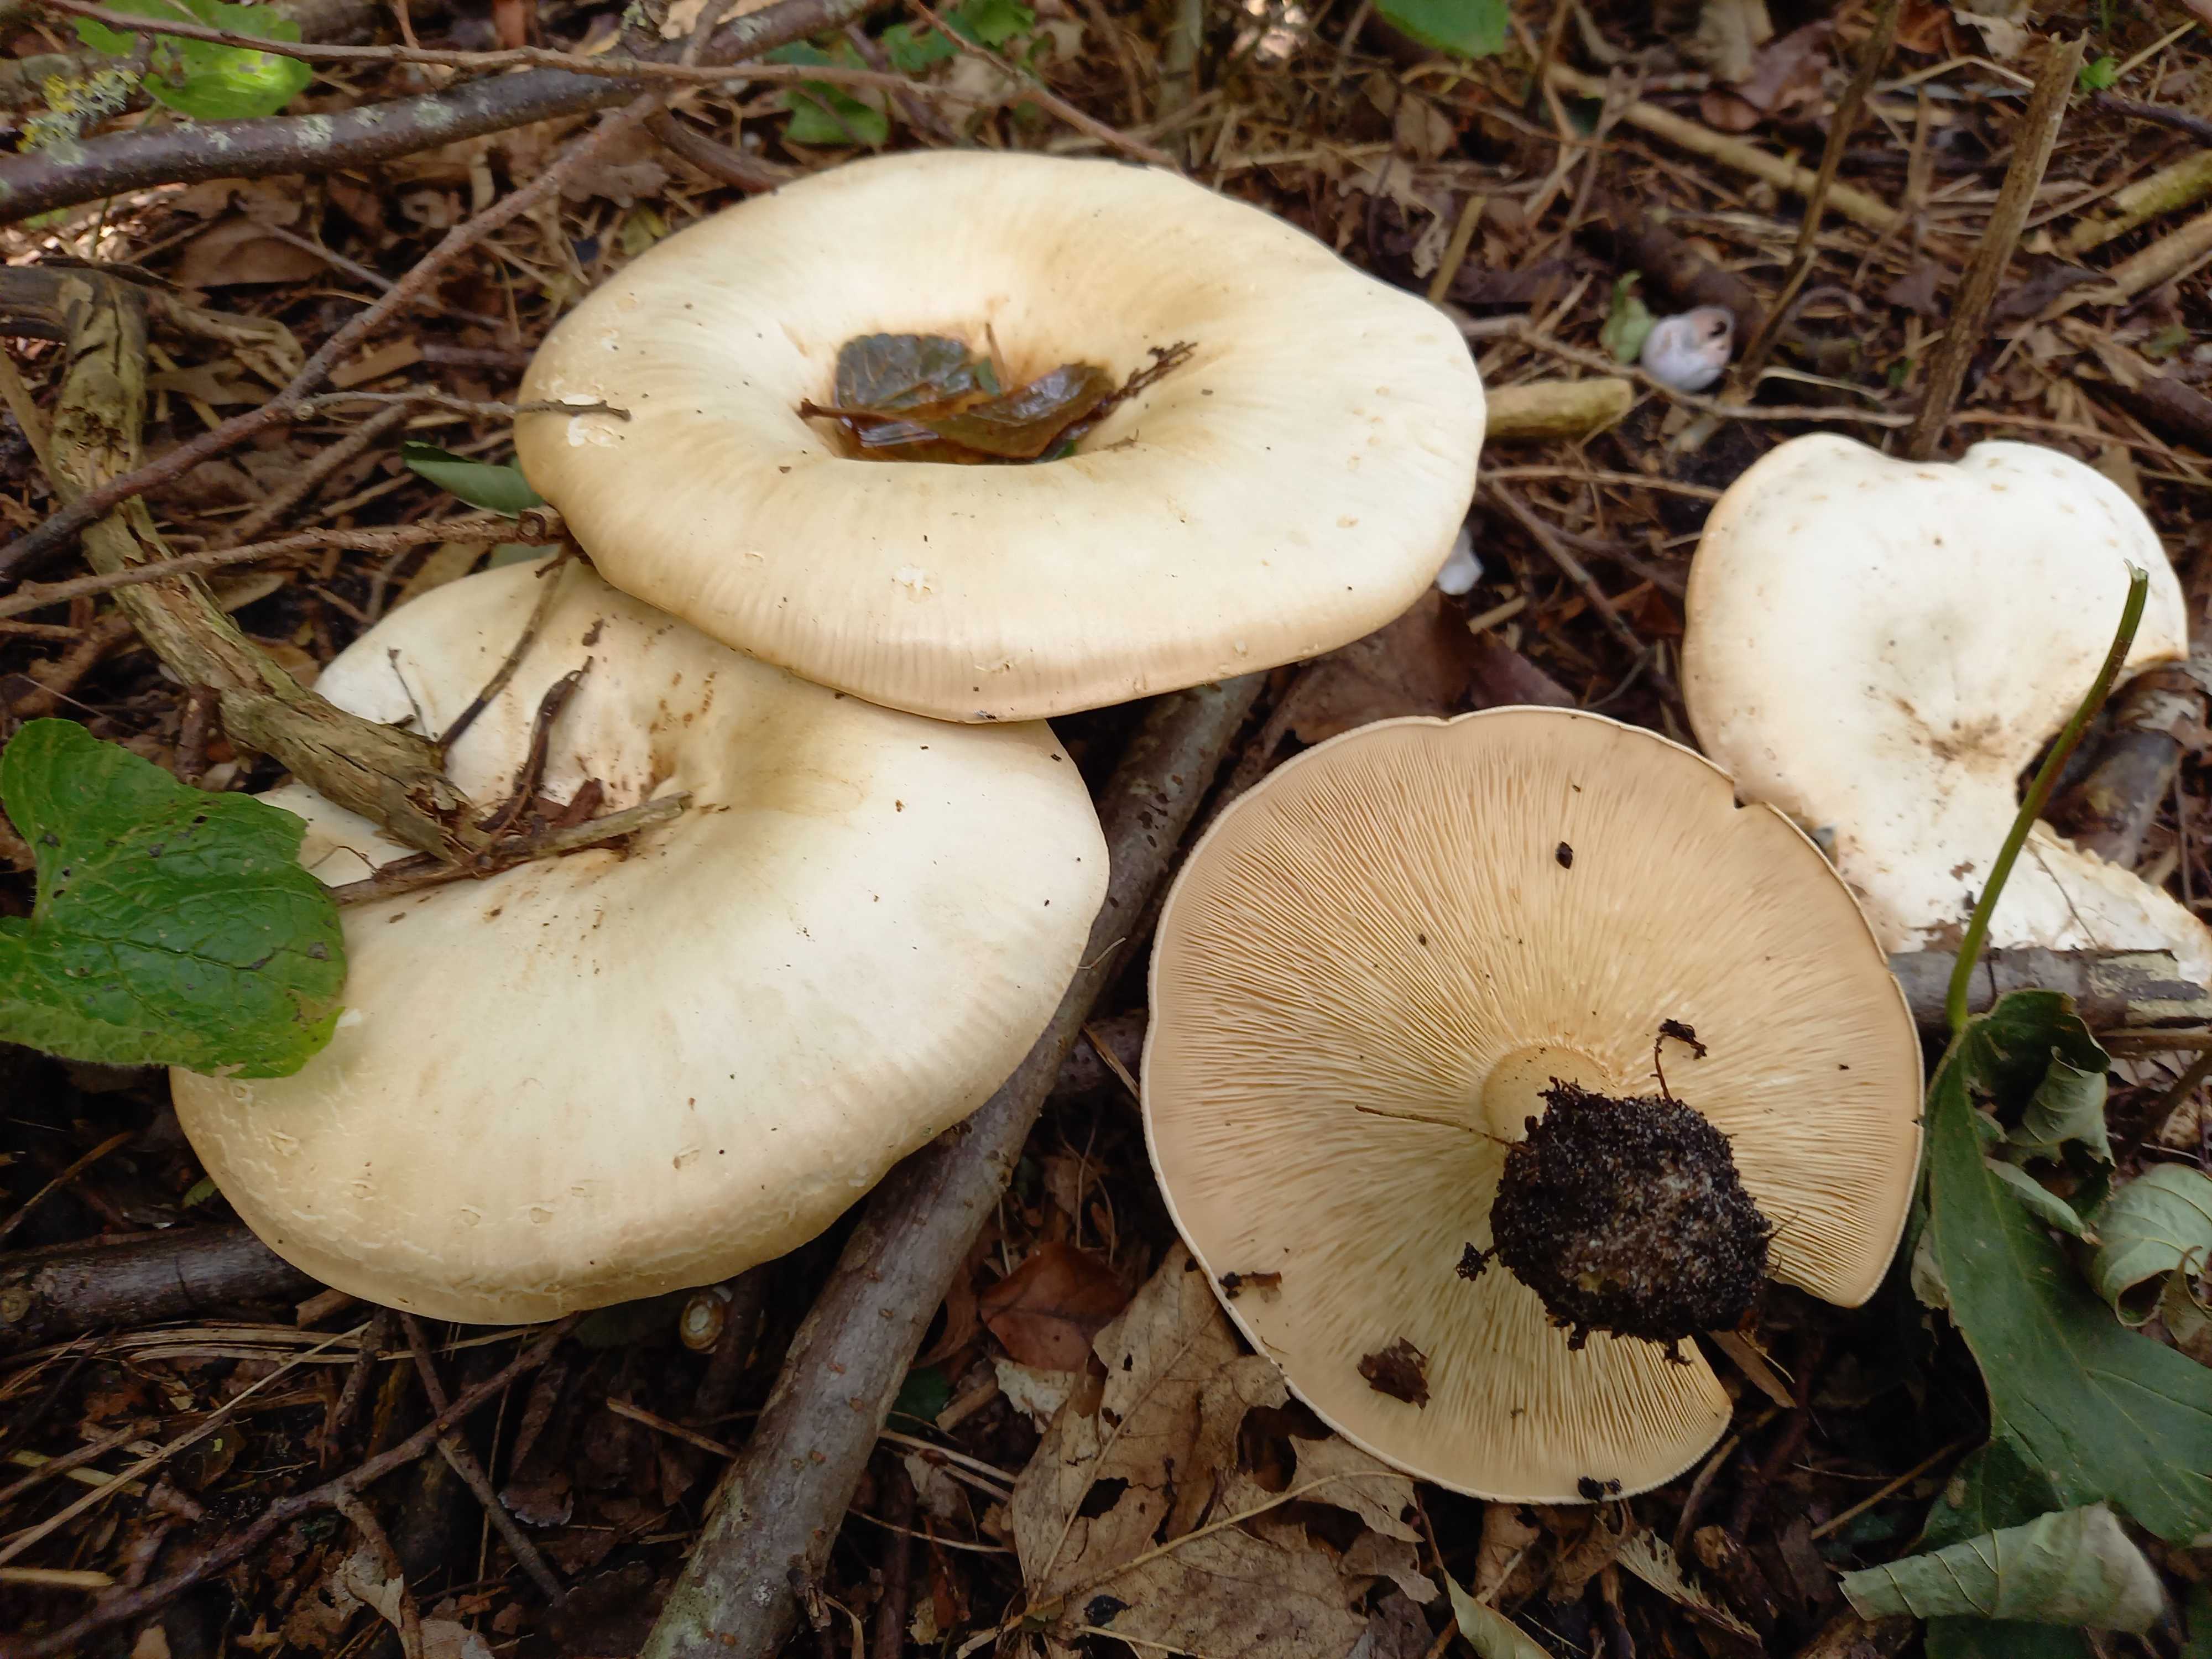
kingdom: Fungi
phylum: Basidiomycota
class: Agaricomycetes
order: Agaricales
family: Tricholomataceae
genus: Aspropaxillus
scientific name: Aspropaxillus giganteus
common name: kæmpe-tragtridderhat
